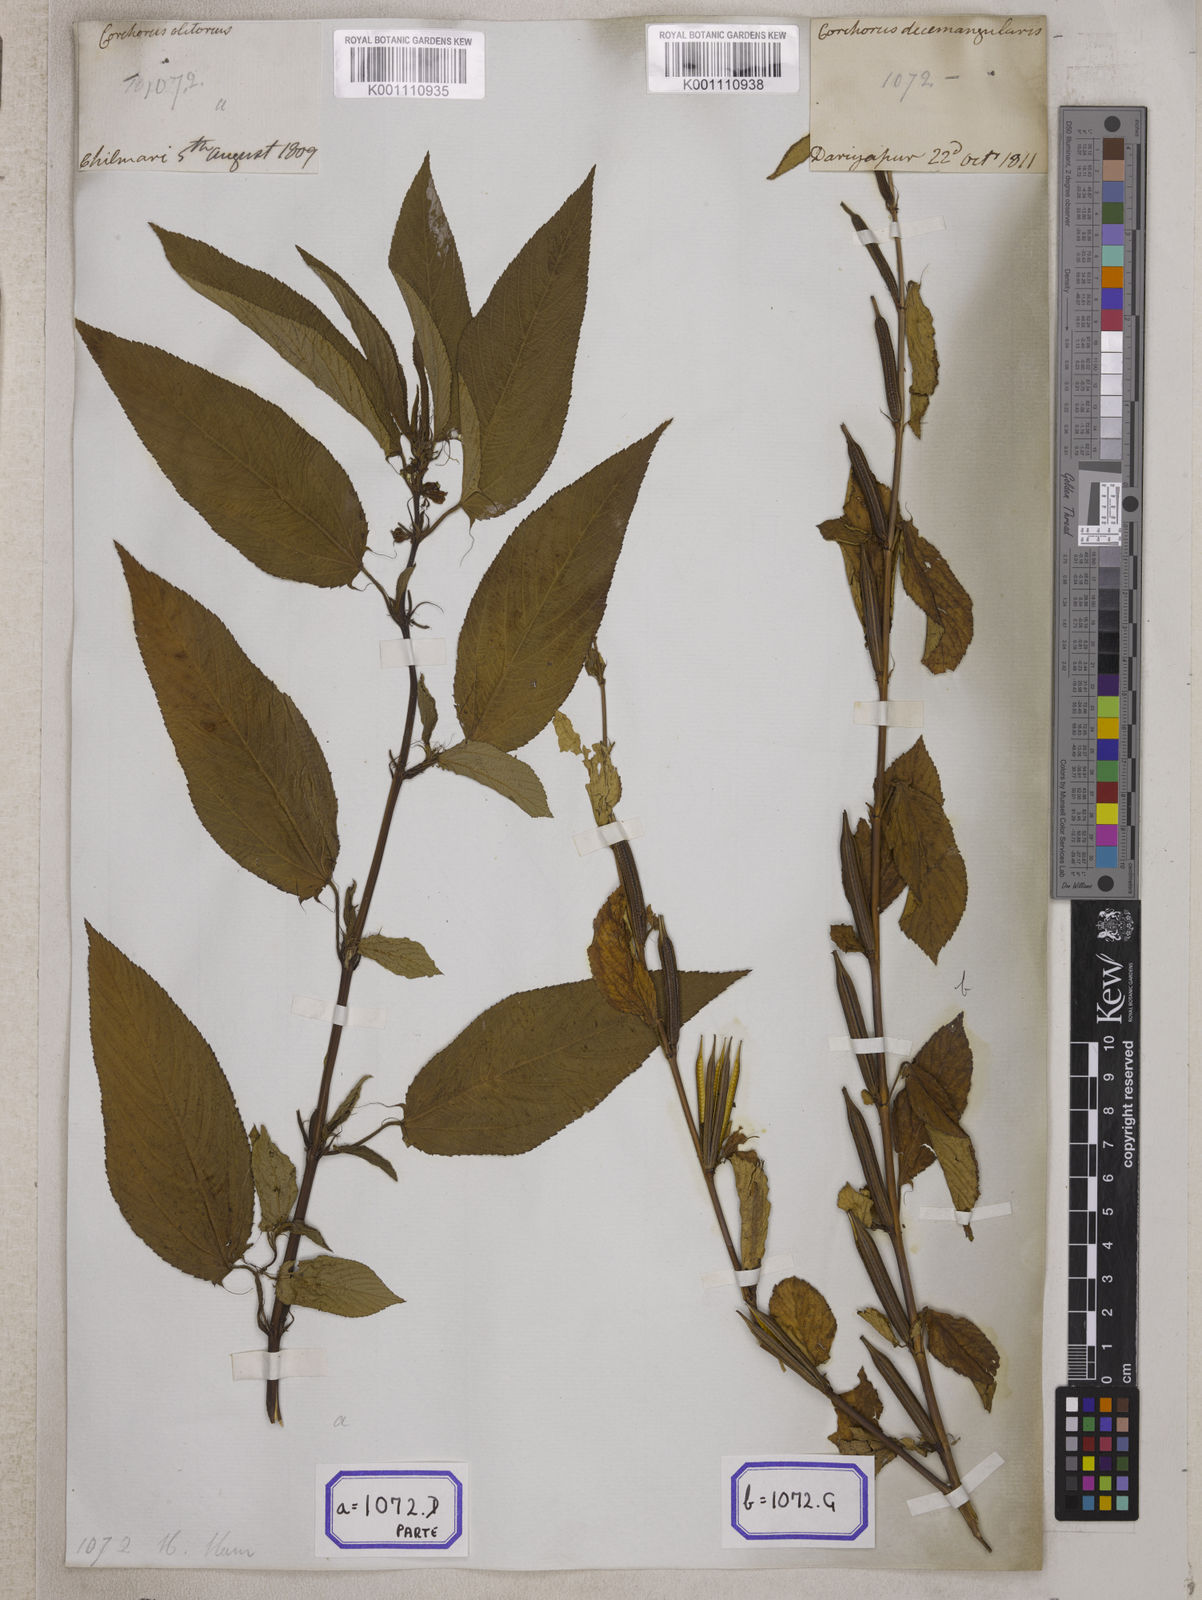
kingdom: Plantae
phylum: Tracheophyta
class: Magnoliopsida
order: Malvales
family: Malvaceae
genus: Corchorus
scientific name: Corchorus olitorius
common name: Tossa jute
